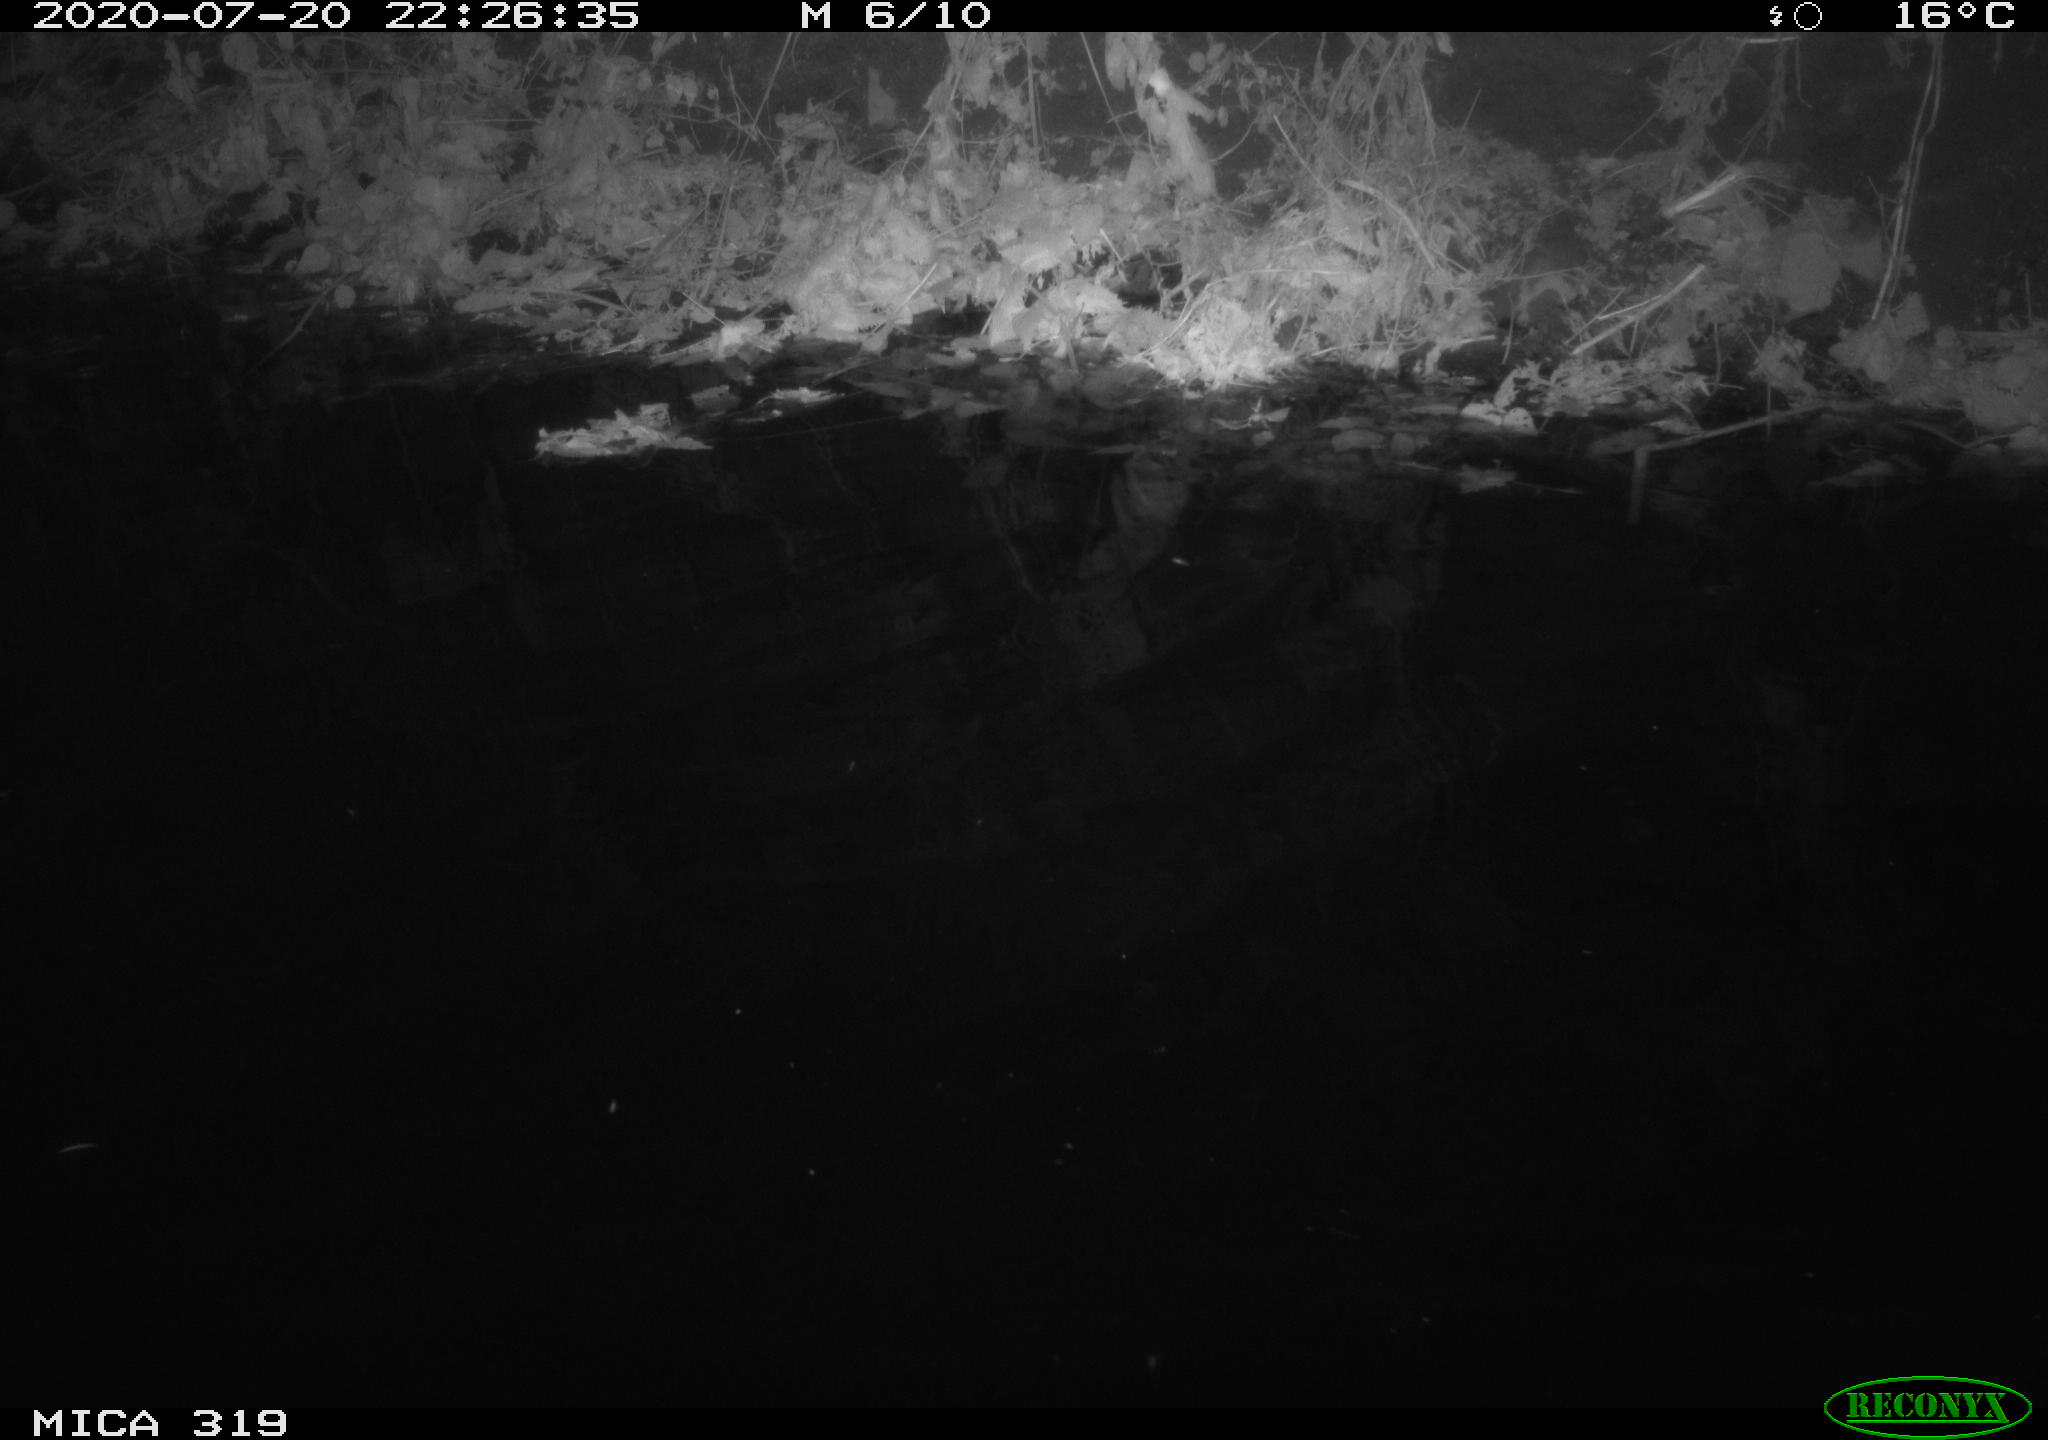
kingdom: Animalia
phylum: Chordata
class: Aves
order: Anseriformes
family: Anatidae
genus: Anas
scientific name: Anas platyrhynchos
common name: Mallard
